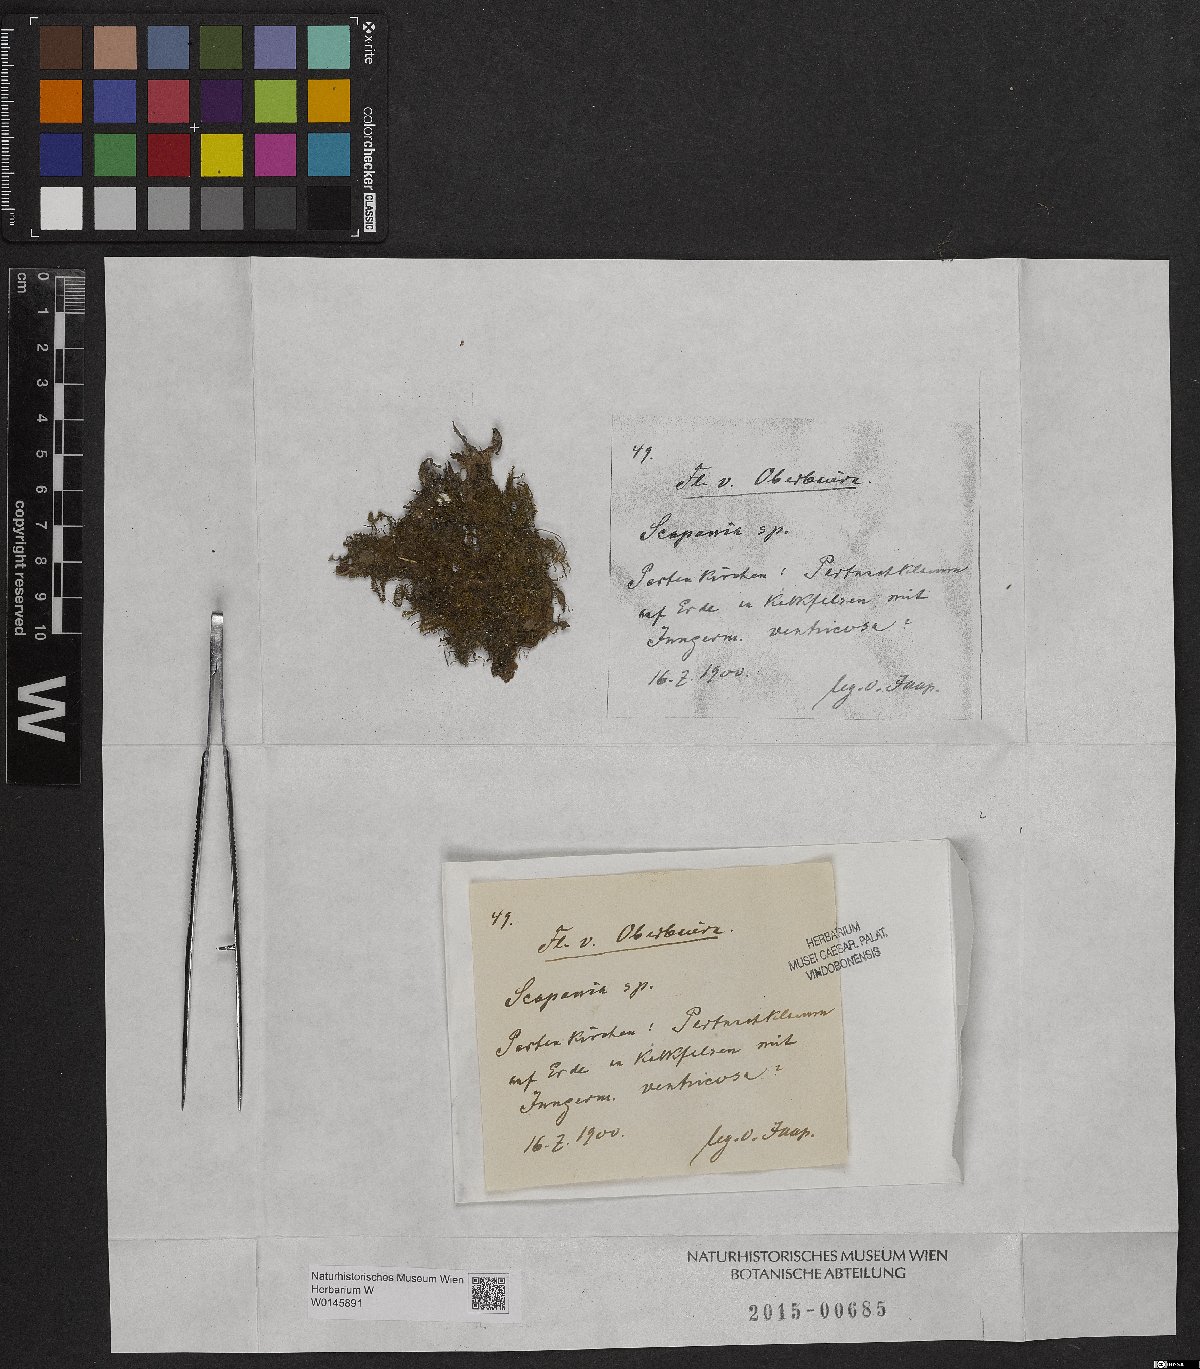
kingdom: Plantae
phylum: Marchantiophyta
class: Jungermanniopsida
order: Jungermanniales
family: Scapaniaceae
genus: Scapania
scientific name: Scapania
